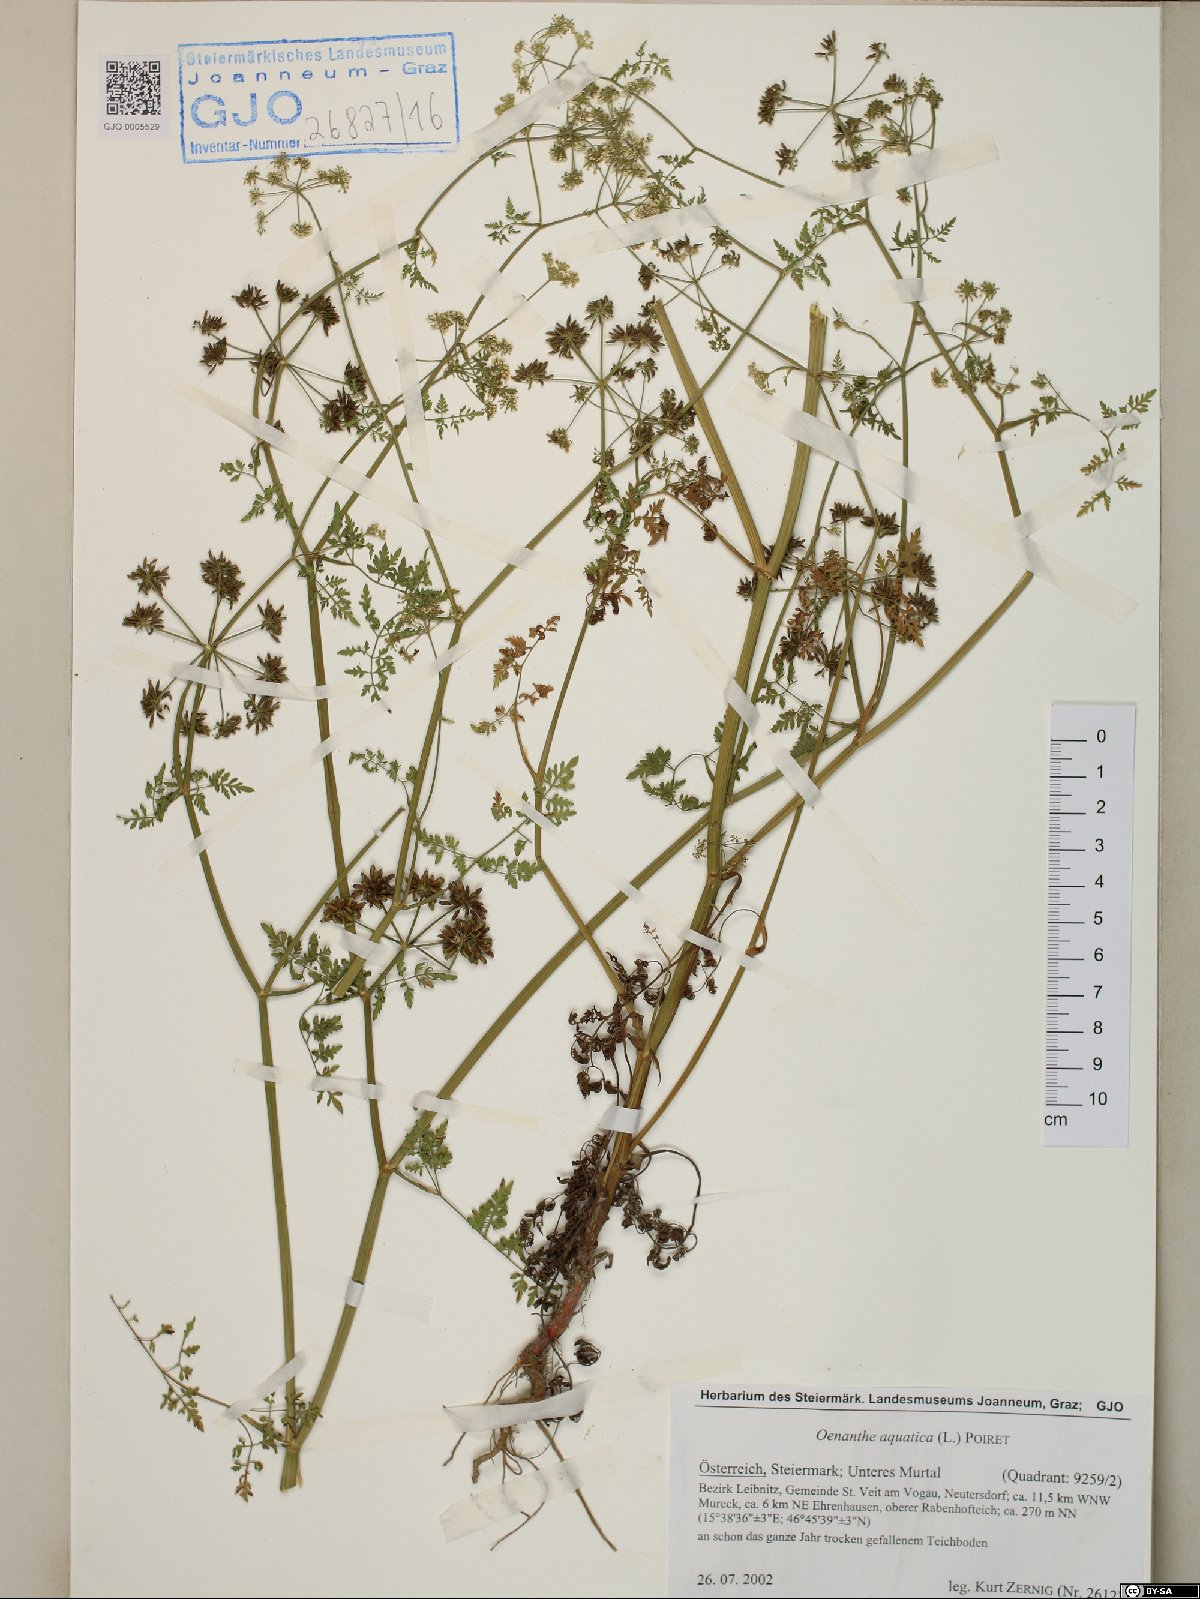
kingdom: Plantae
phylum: Tracheophyta
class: Magnoliopsida
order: Apiales
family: Apiaceae
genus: Oenanthe
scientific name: Oenanthe aquatica
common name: Fine-leaved water-dropwort
